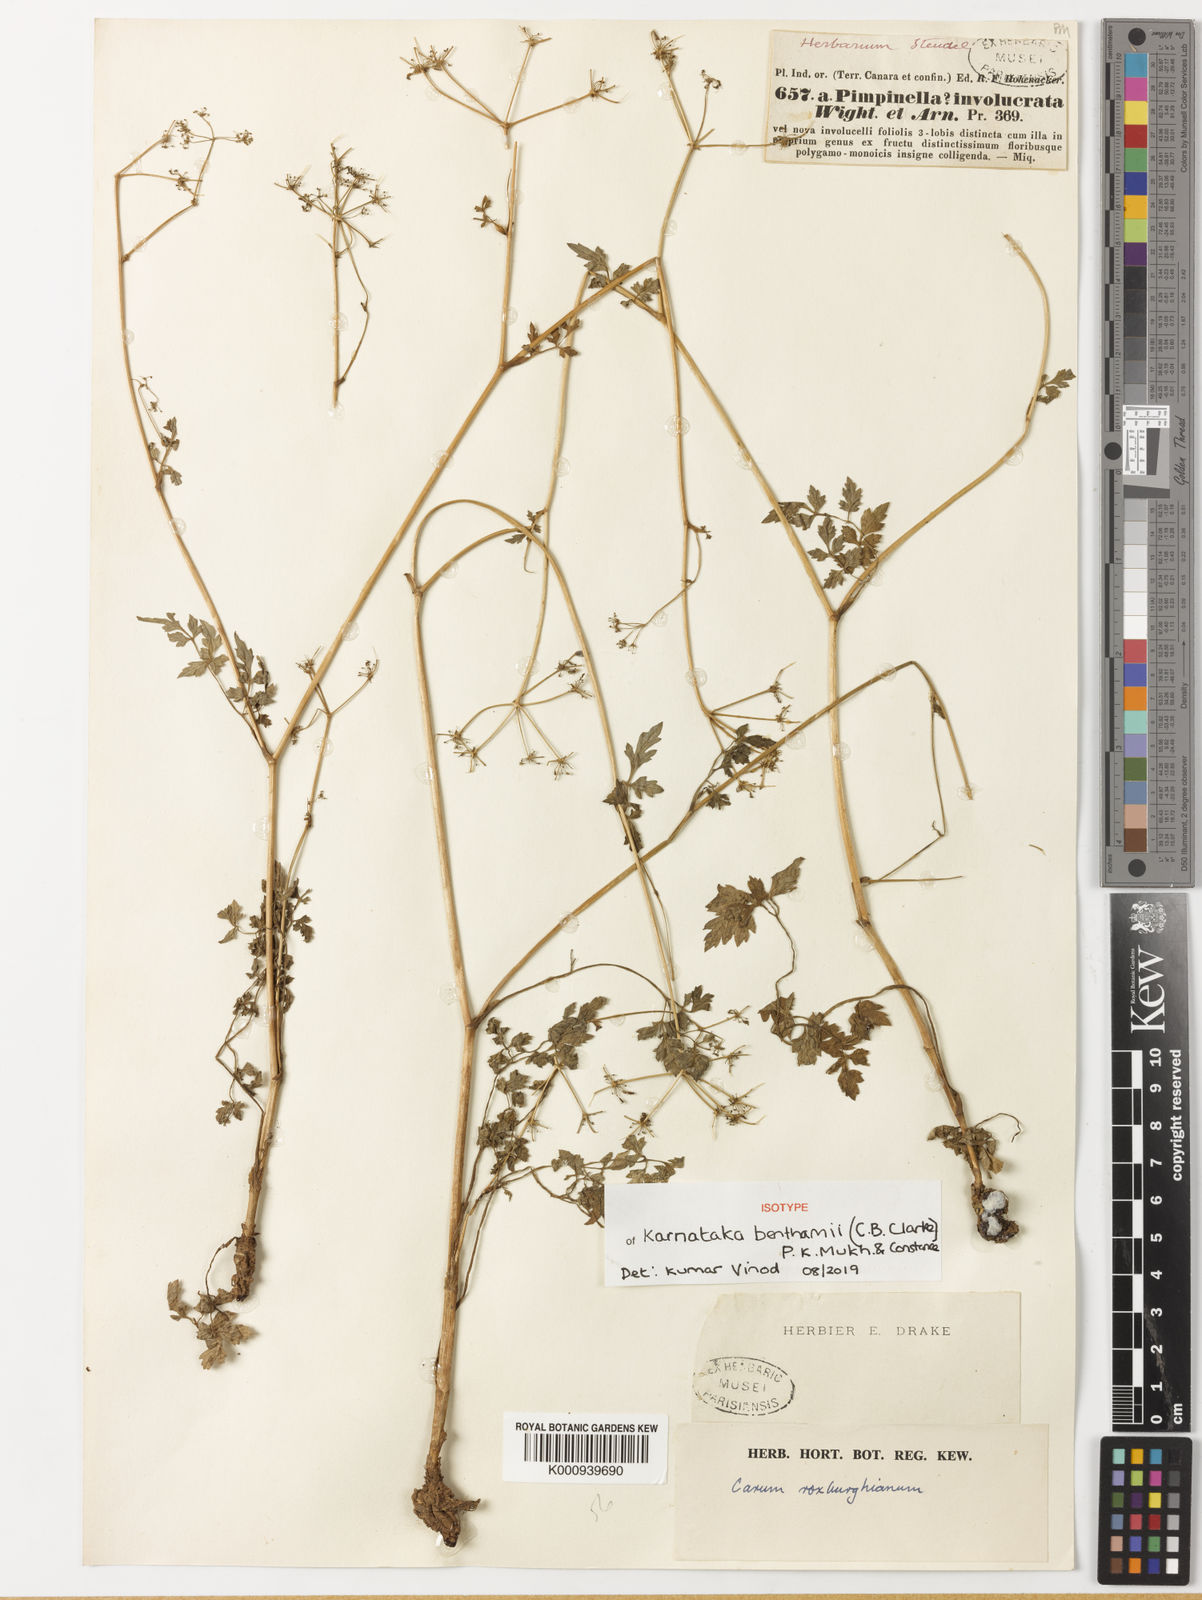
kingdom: Plantae
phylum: Tracheophyta
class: Magnoliopsida
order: Apiales
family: Apiaceae
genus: Karnataka
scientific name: Karnataka benthamii
